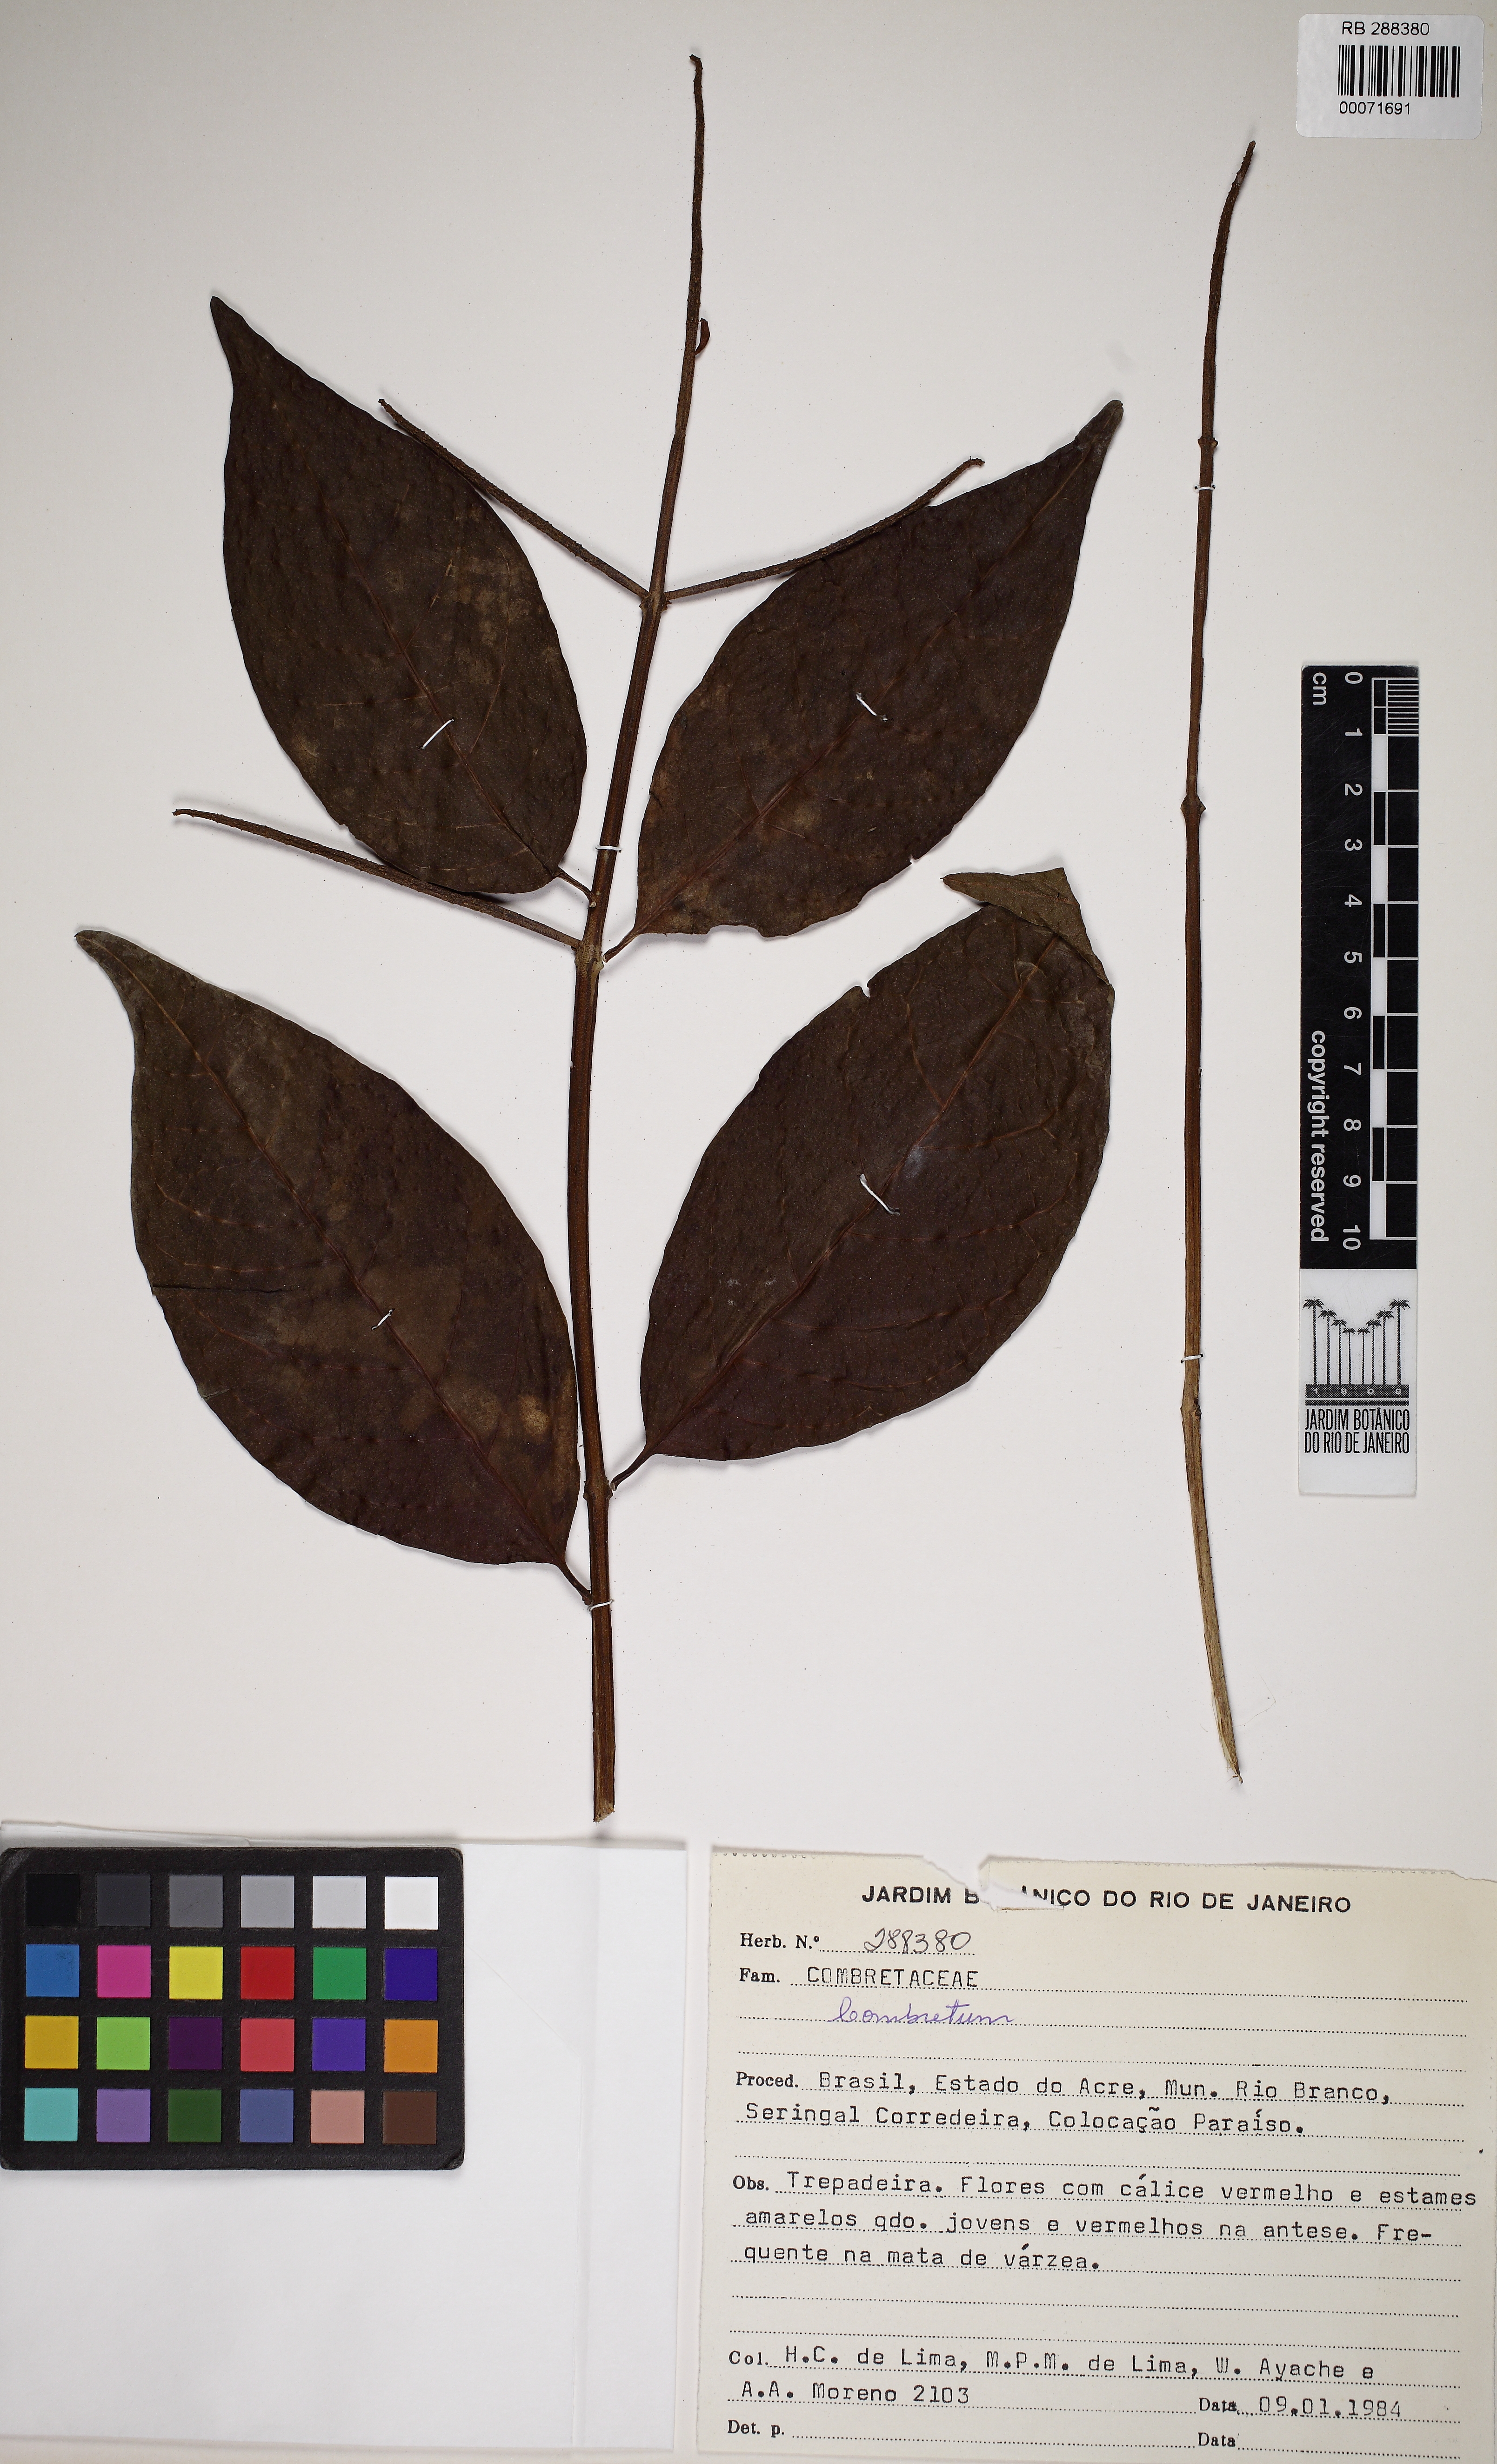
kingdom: Plantae
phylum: Tracheophyta
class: Magnoliopsida
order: Myrtales
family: Combretaceae
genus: Combretum
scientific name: Combretum
